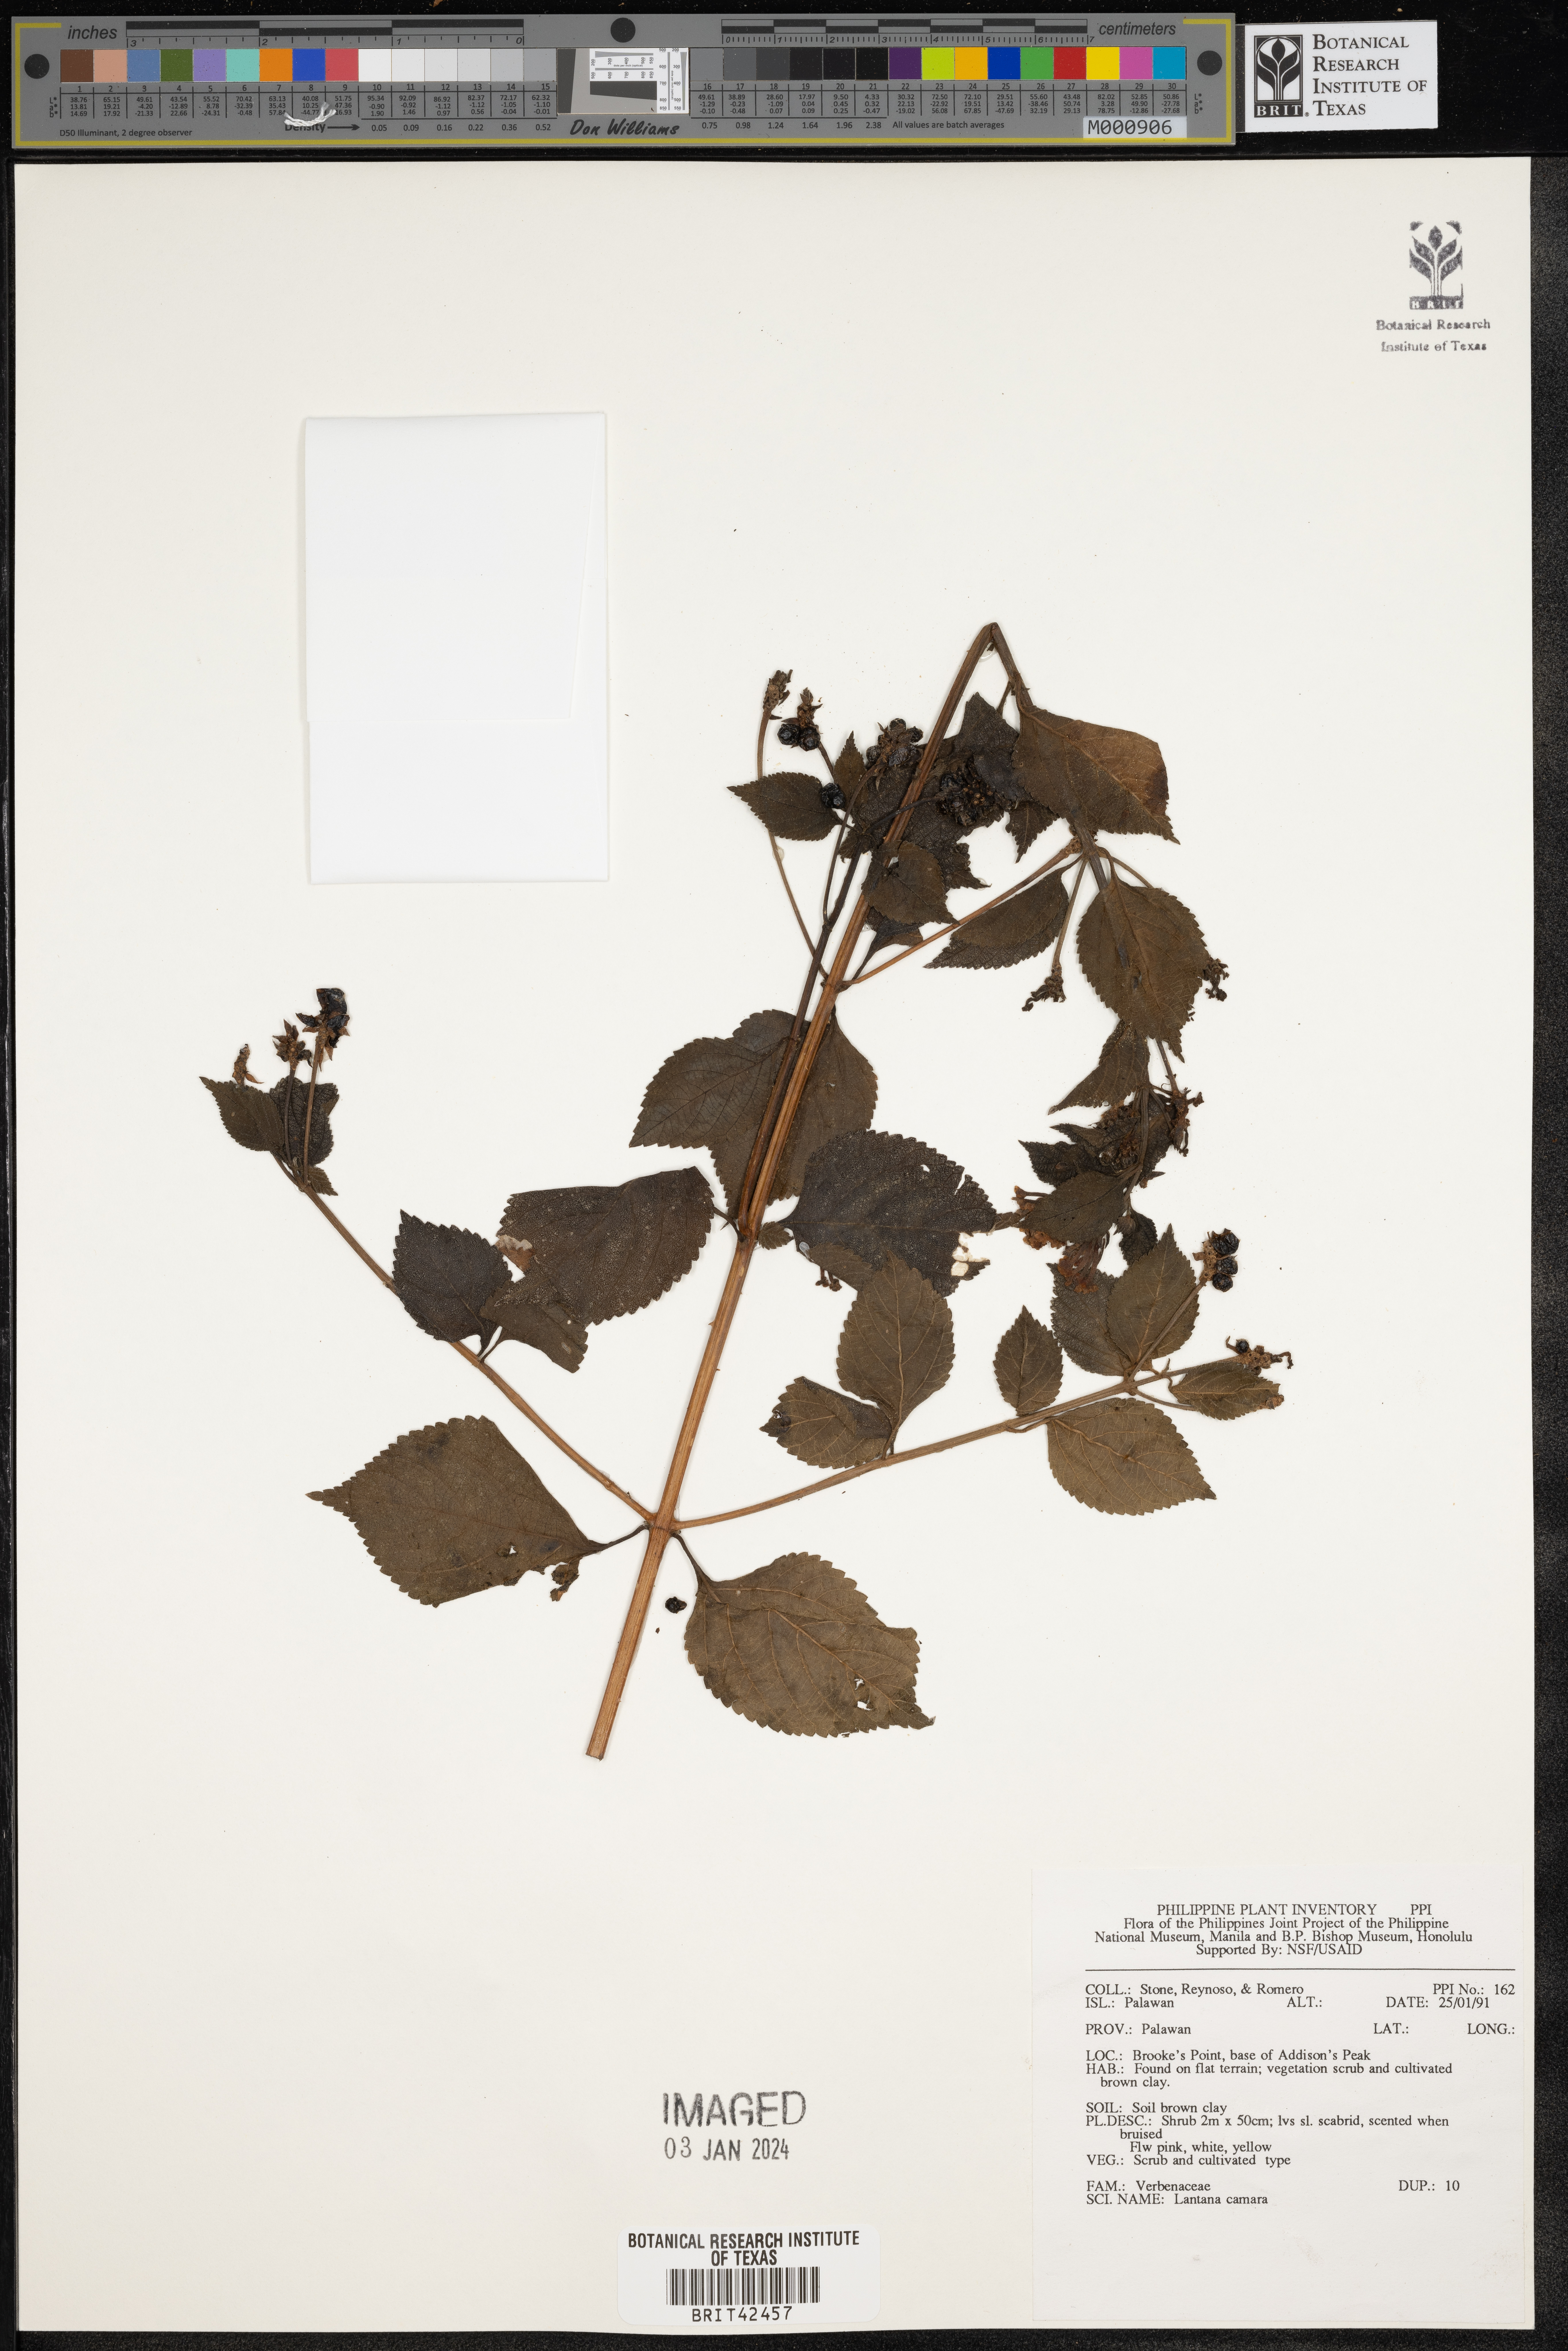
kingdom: Plantae
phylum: Tracheophyta
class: Magnoliopsida
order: Lamiales
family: Verbenaceae
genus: Lantana
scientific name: Lantana camara
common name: Lantana
